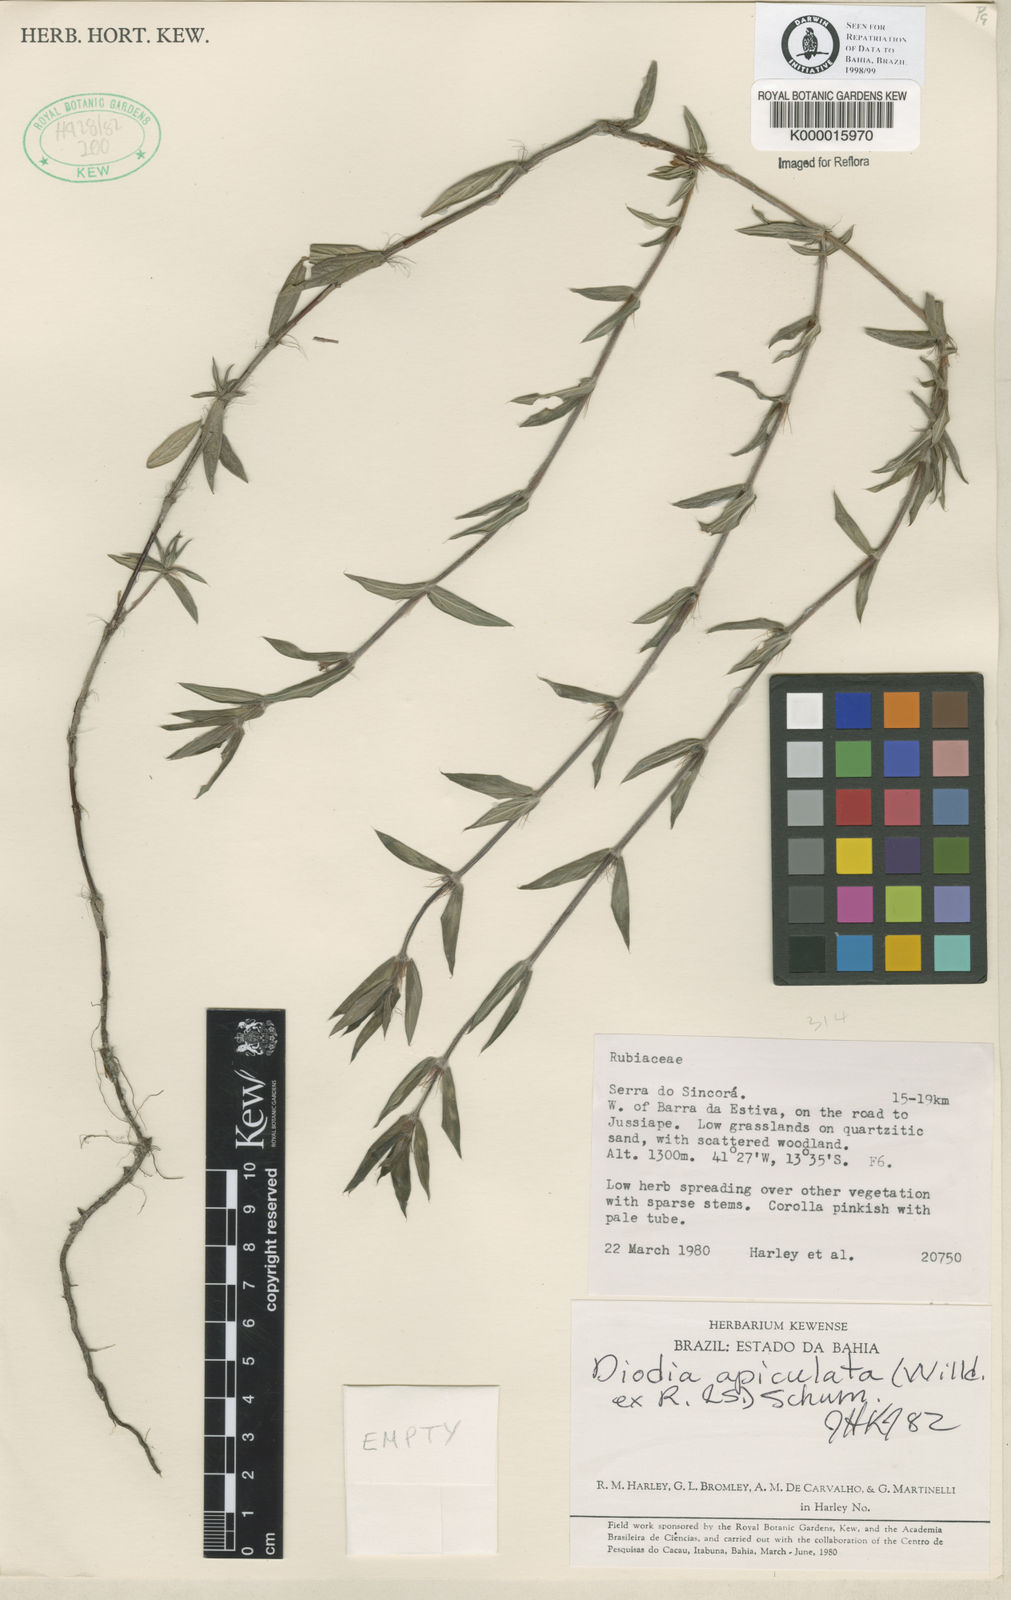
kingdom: Plantae
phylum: Tracheophyta
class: Magnoliopsida
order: Gentianales
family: Rubiaceae
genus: Hexasepalum
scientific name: Hexasepalum apiculatum
